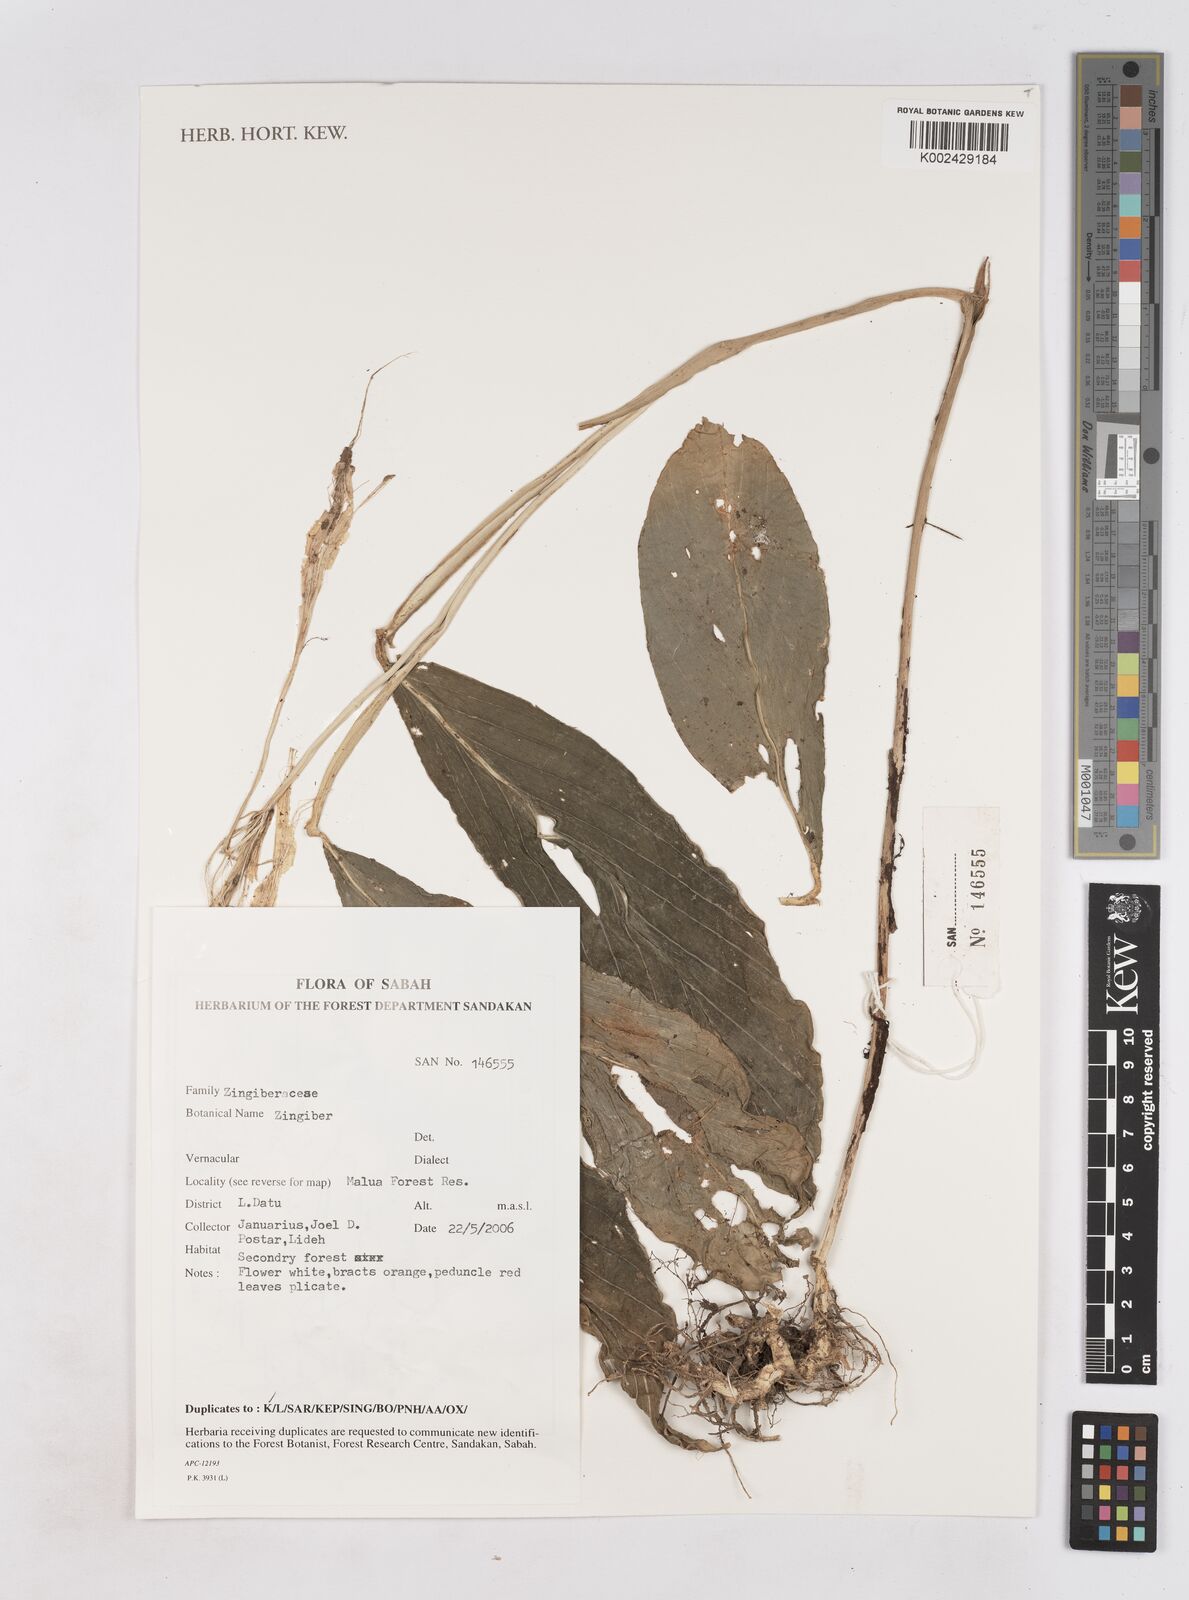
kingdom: Plantae
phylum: Tracheophyta
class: Liliopsida
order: Zingiberales
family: Zingiberaceae
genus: Zingiber
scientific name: Zingiber
